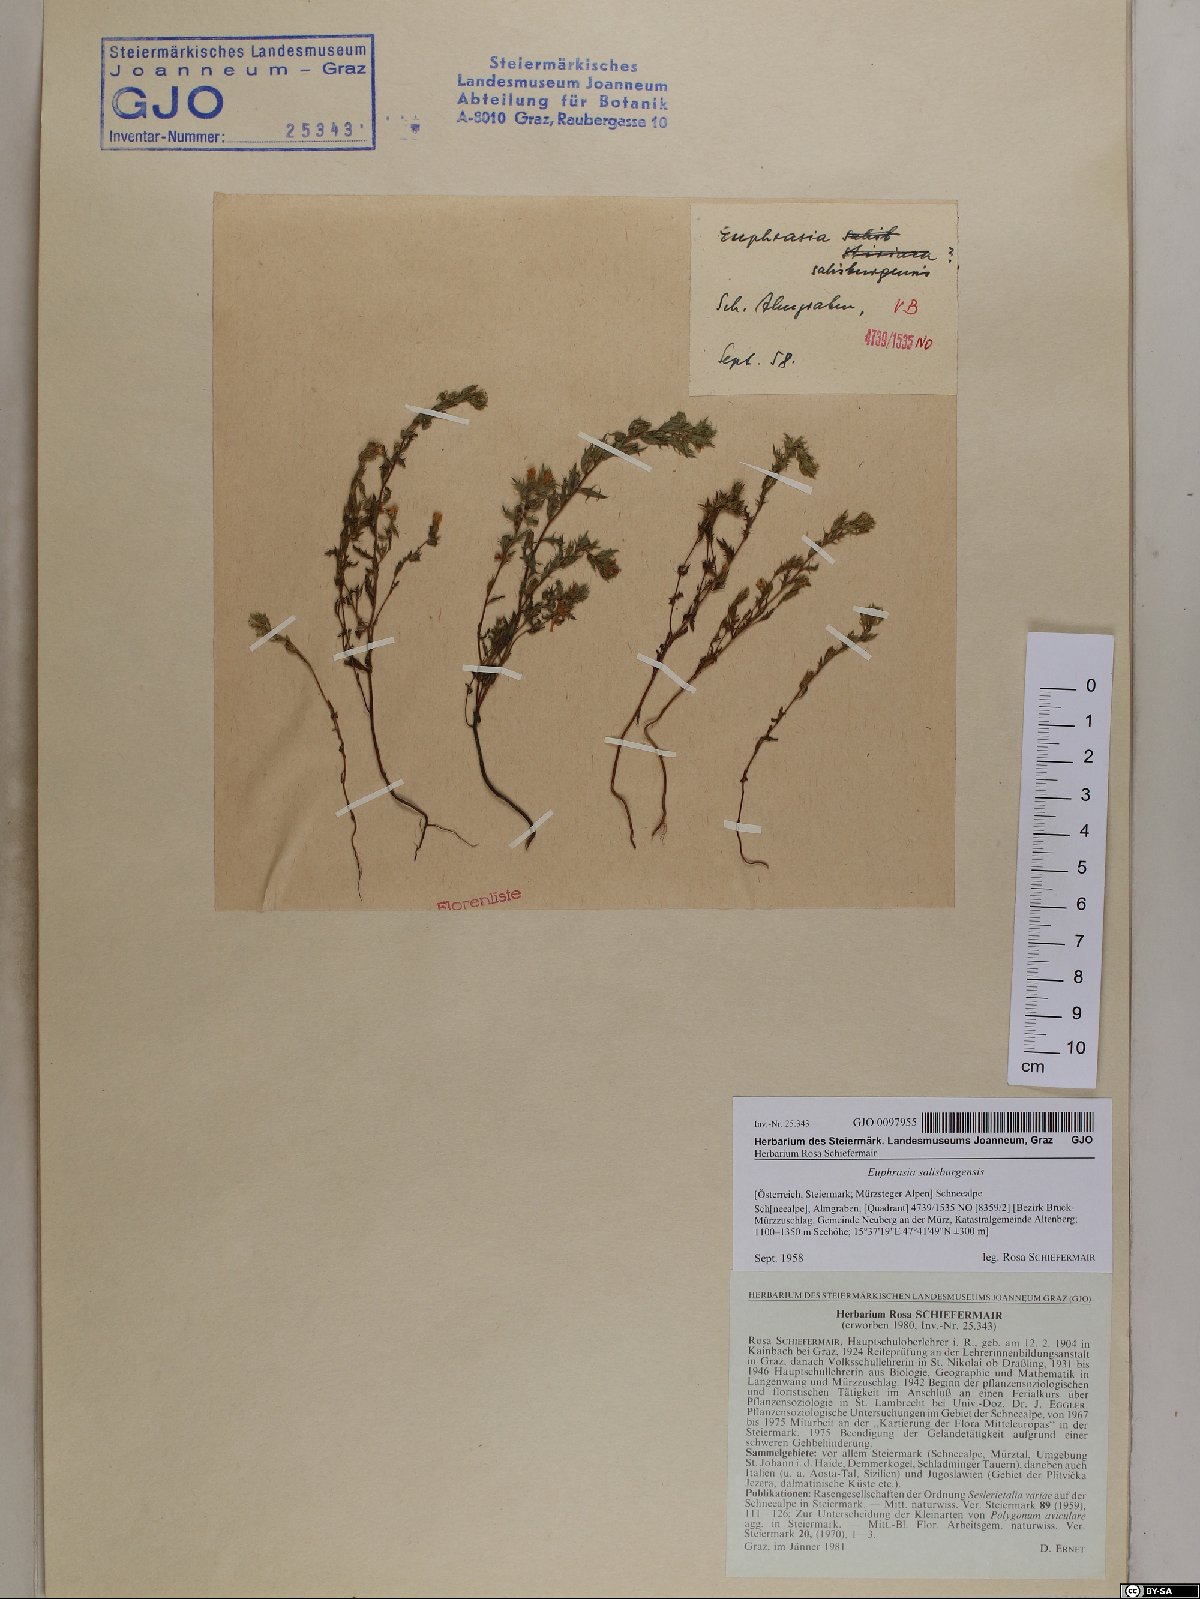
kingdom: Plantae
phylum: Tracheophyta
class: Magnoliopsida
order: Lamiales
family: Orobanchaceae
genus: Euphrasia
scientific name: Euphrasia salisburgensis
